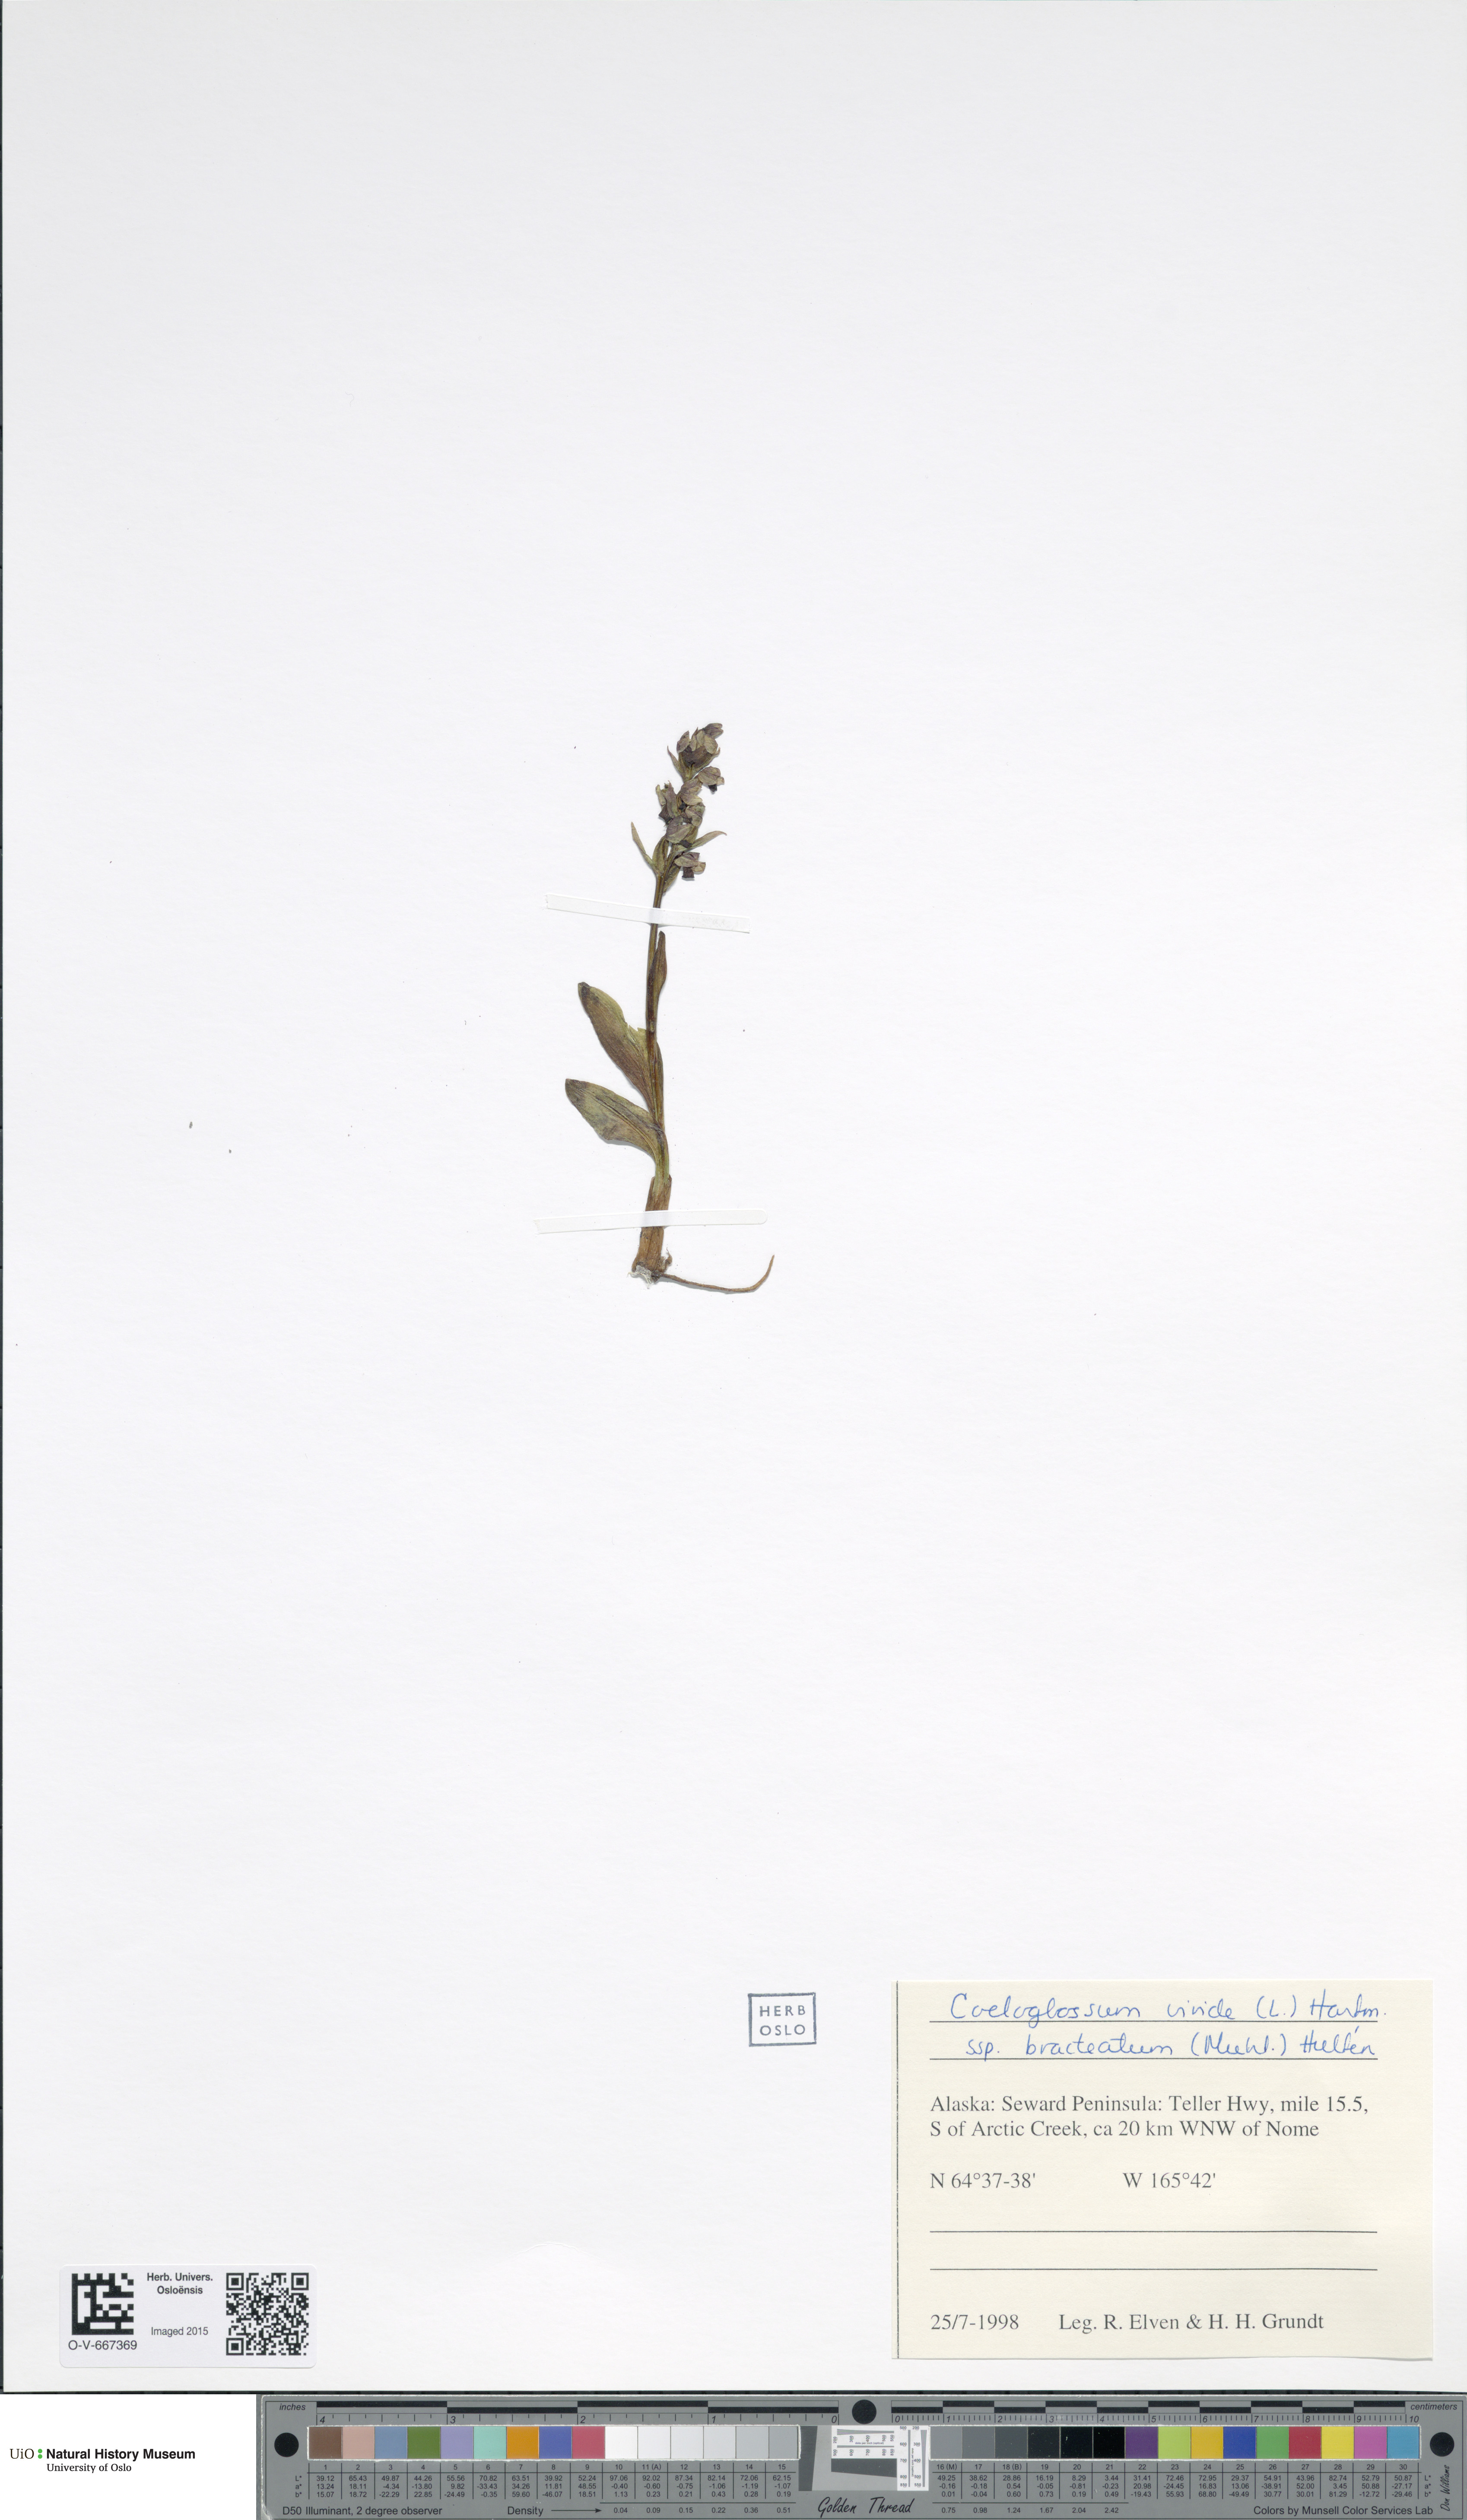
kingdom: Plantae
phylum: Tracheophyta
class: Liliopsida
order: Asparagales
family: Orchidaceae
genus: Dactylorhiza
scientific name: Dactylorhiza viridis
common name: Longbract frog orchid
